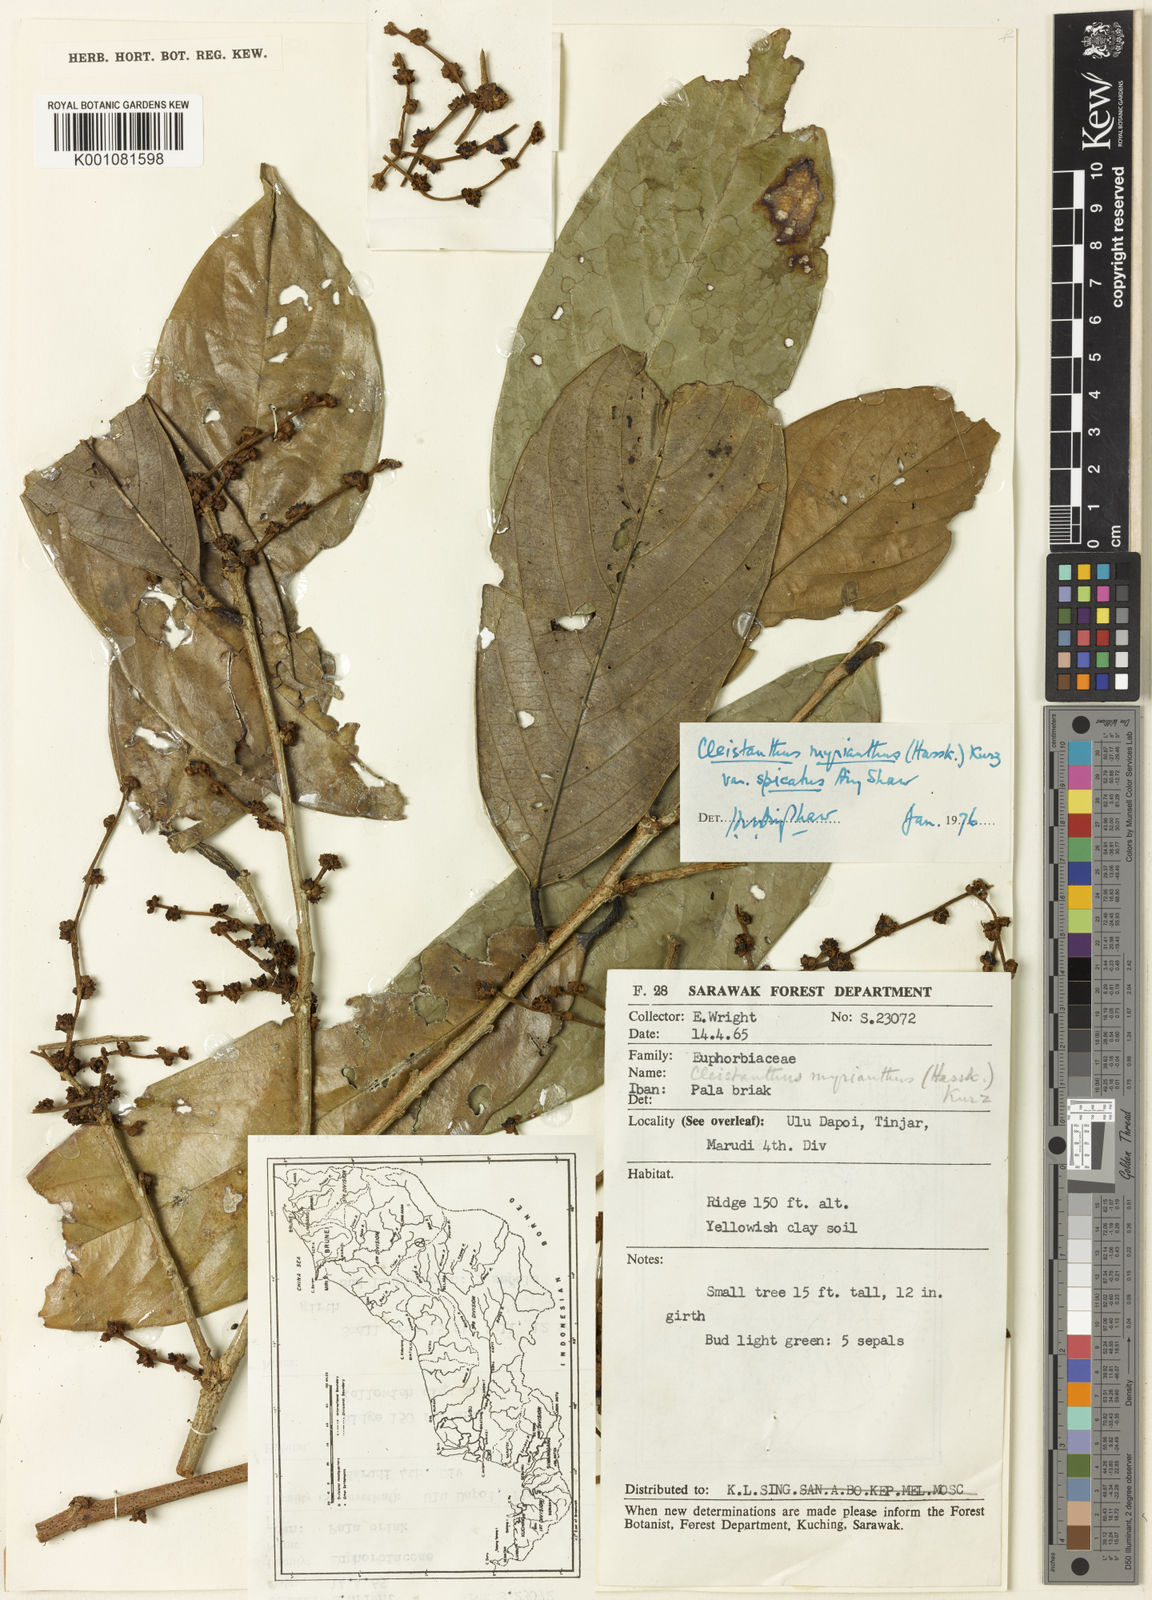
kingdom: Plantae
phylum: Tracheophyta
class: Magnoliopsida
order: Malpighiales
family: Phyllanthaceae
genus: Cleistanthus
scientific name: Cleistanthus oblongifolius
